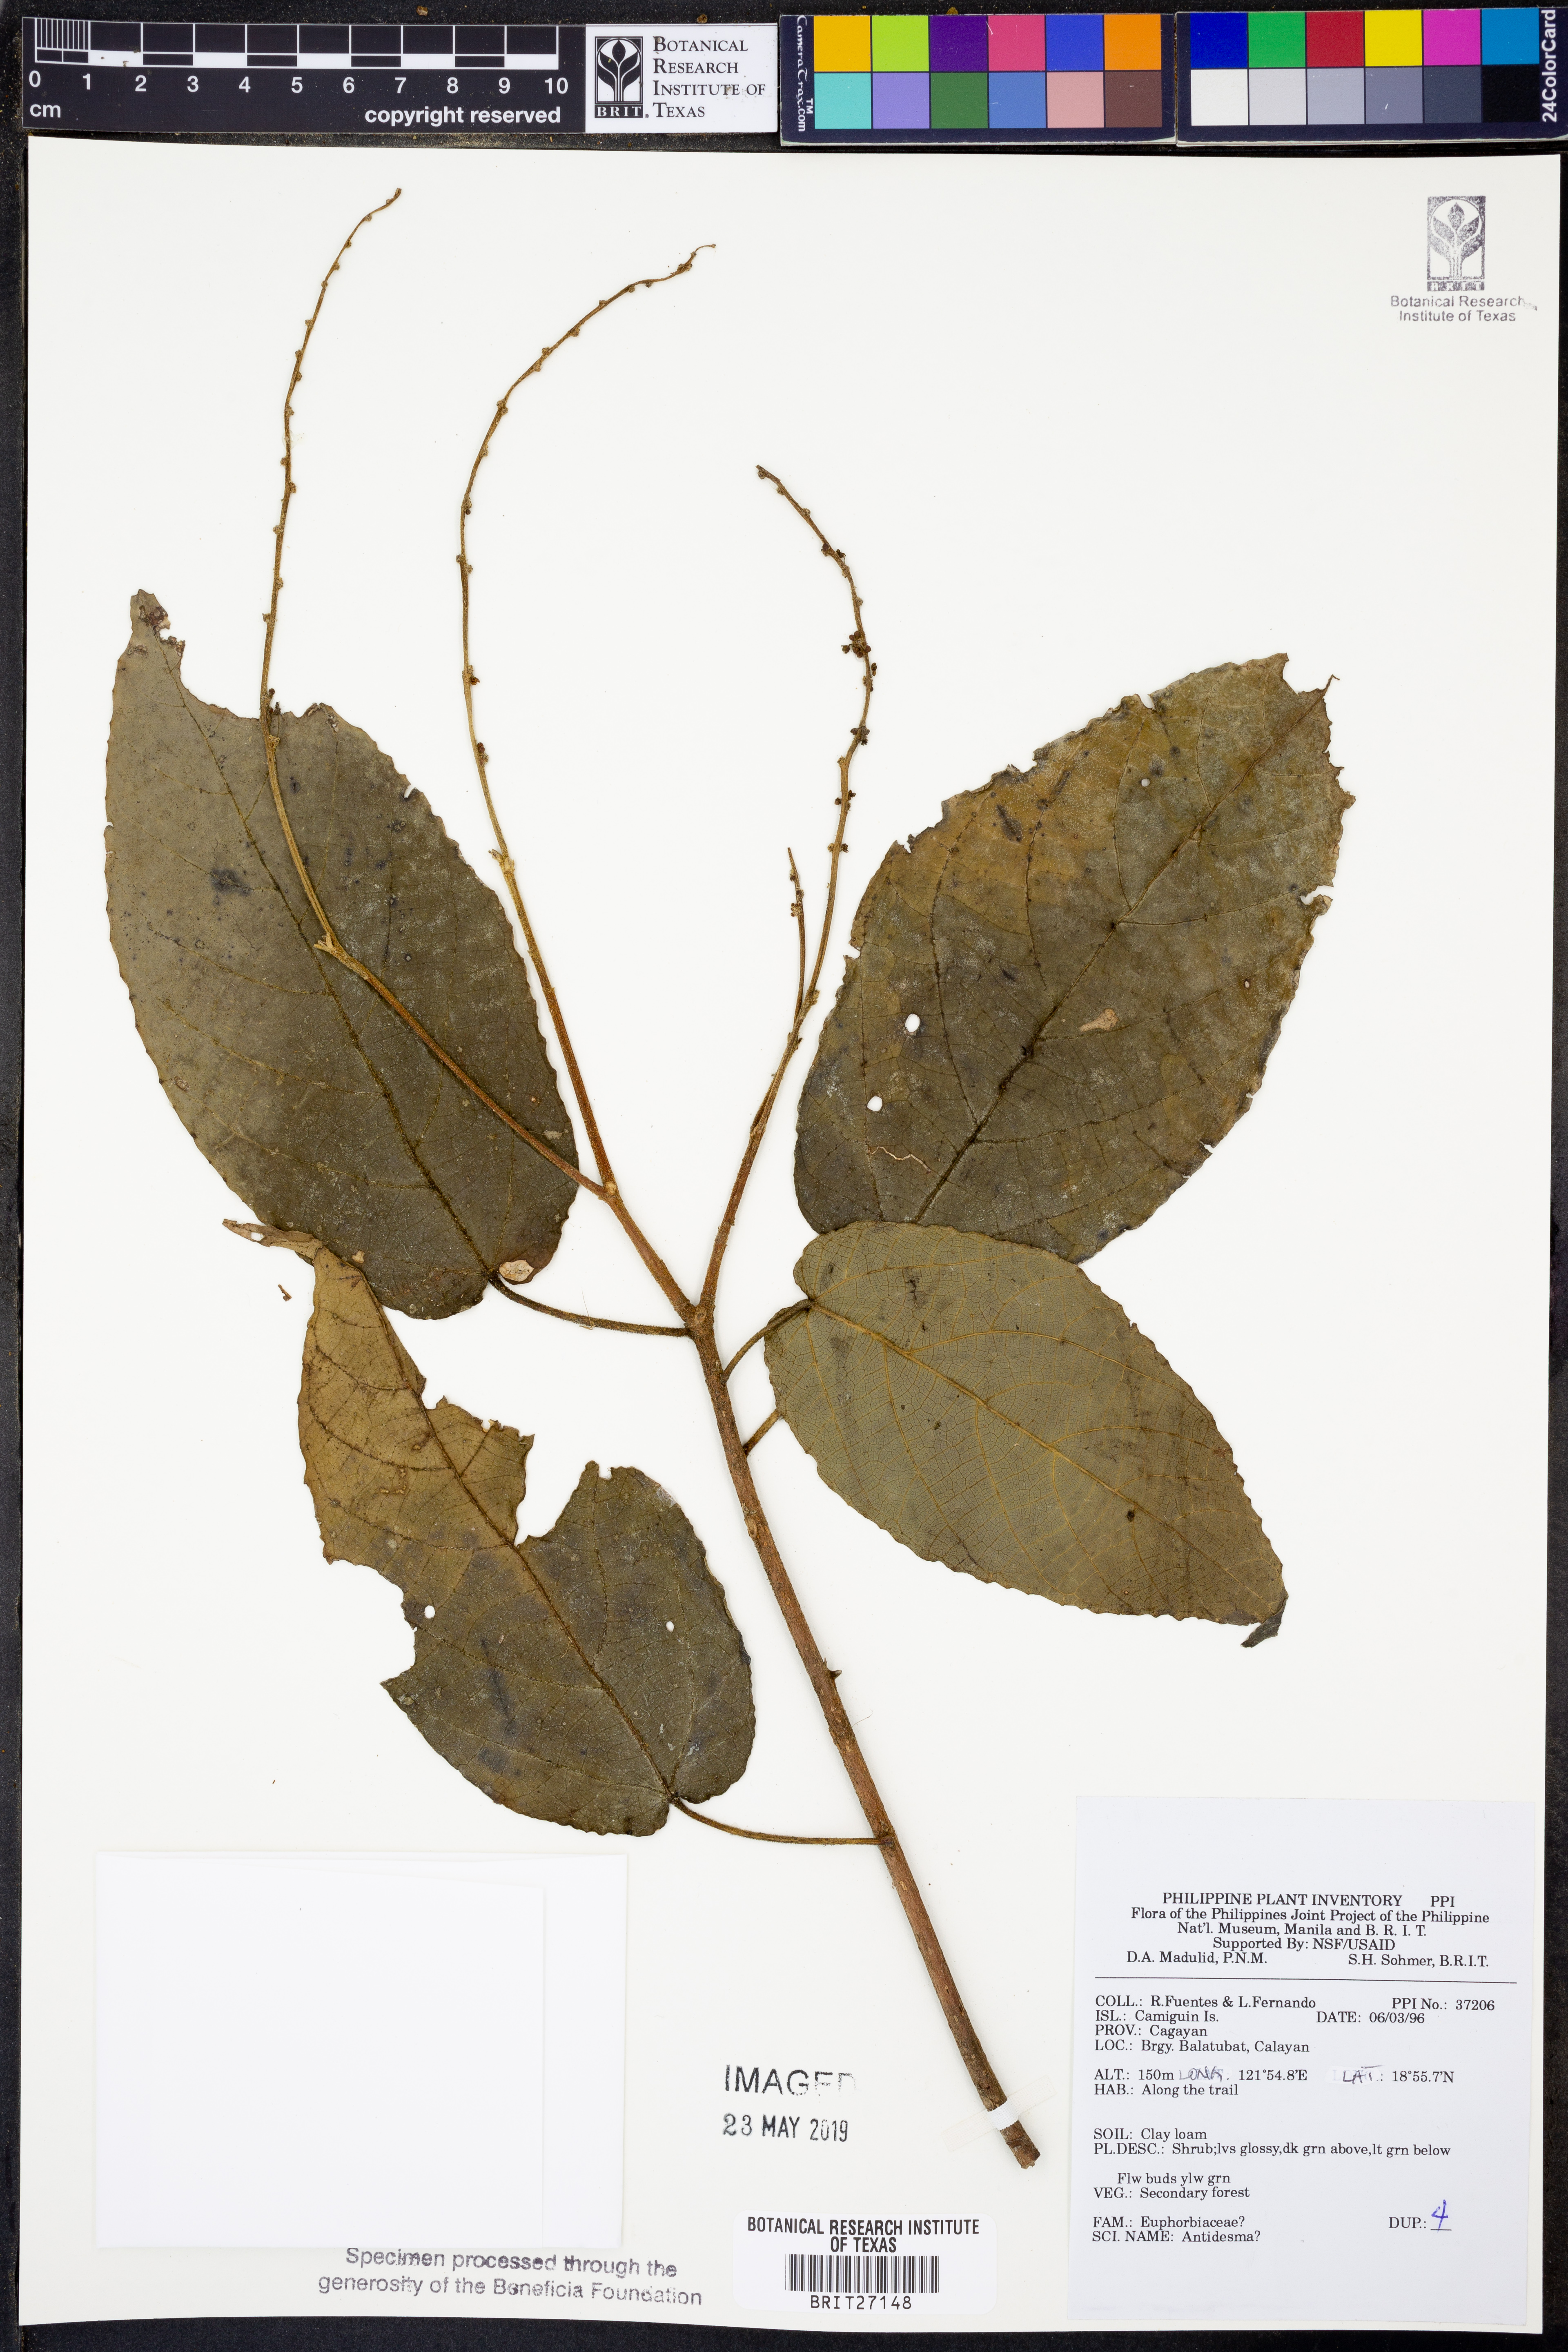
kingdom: Plantae
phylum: Tracheophyta
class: Magnoliopsida
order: Malpighiales
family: Phyllanthaceae
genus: Antidesma
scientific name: Antidesma
